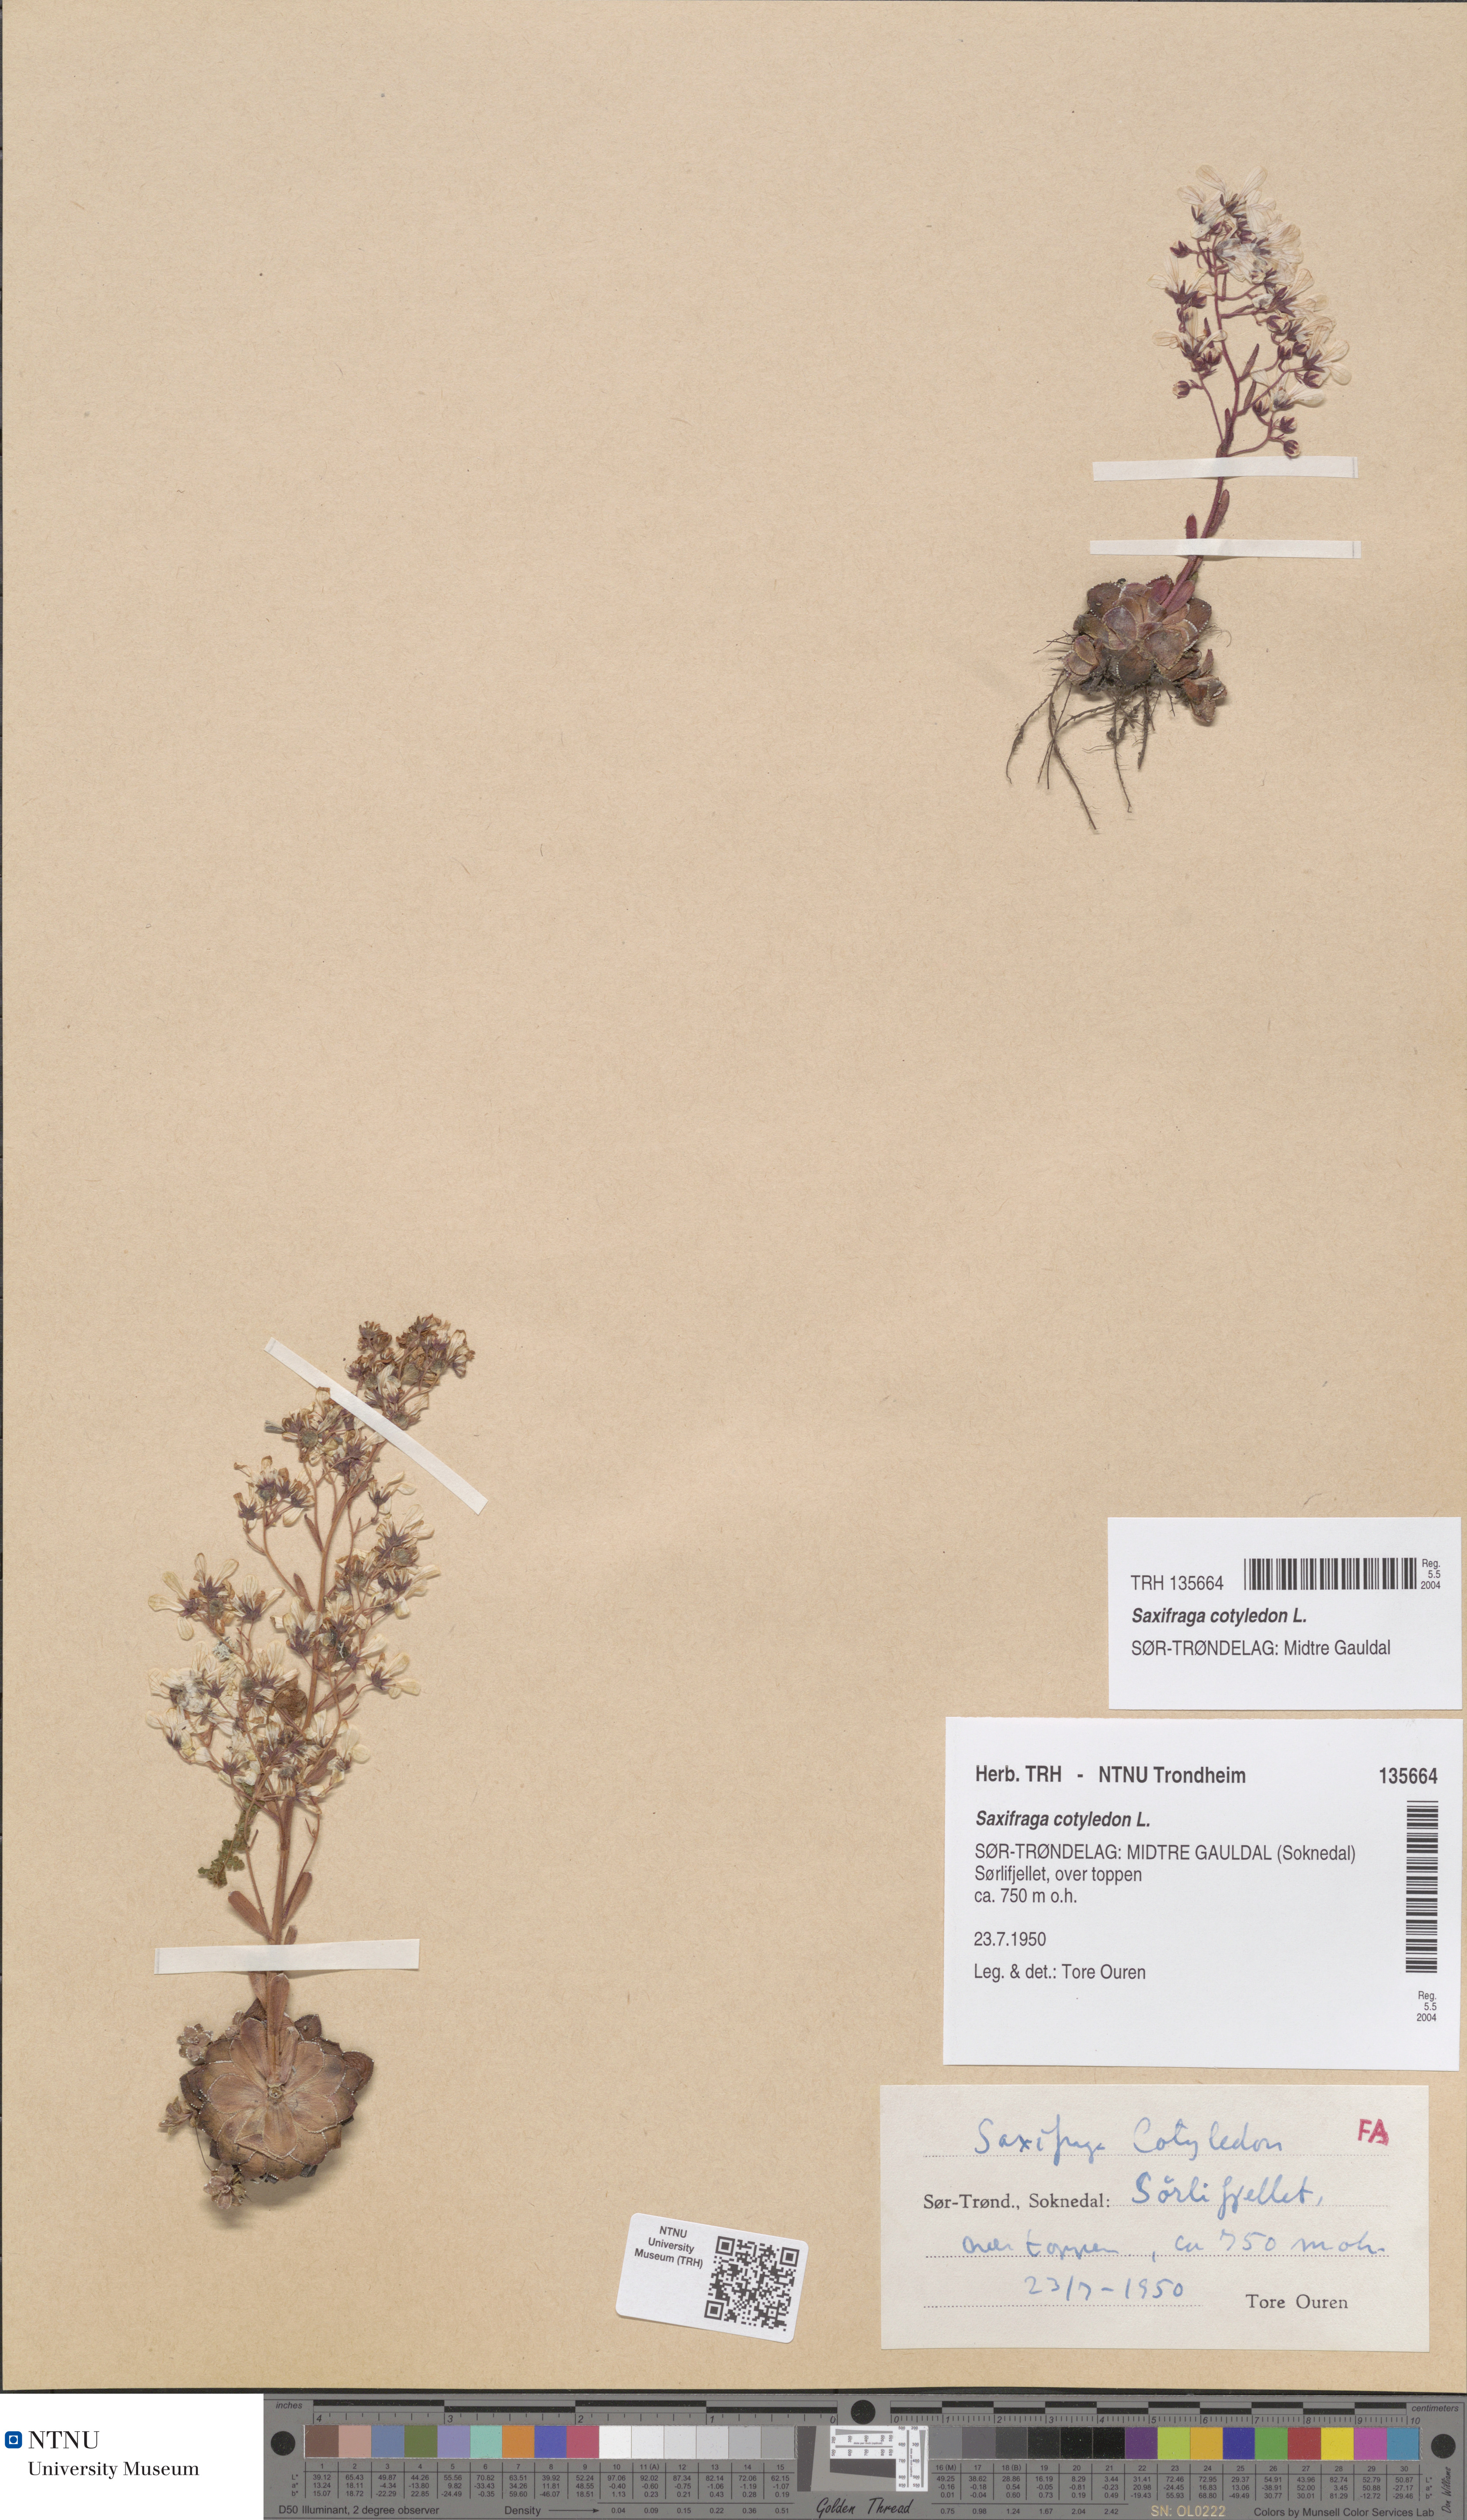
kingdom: Plantae
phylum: Tracheophyta
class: Magnoliopsida
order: Saxifragales
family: Saxifragaceae
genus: Saxifraga
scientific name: Saxifraga cotyledon
